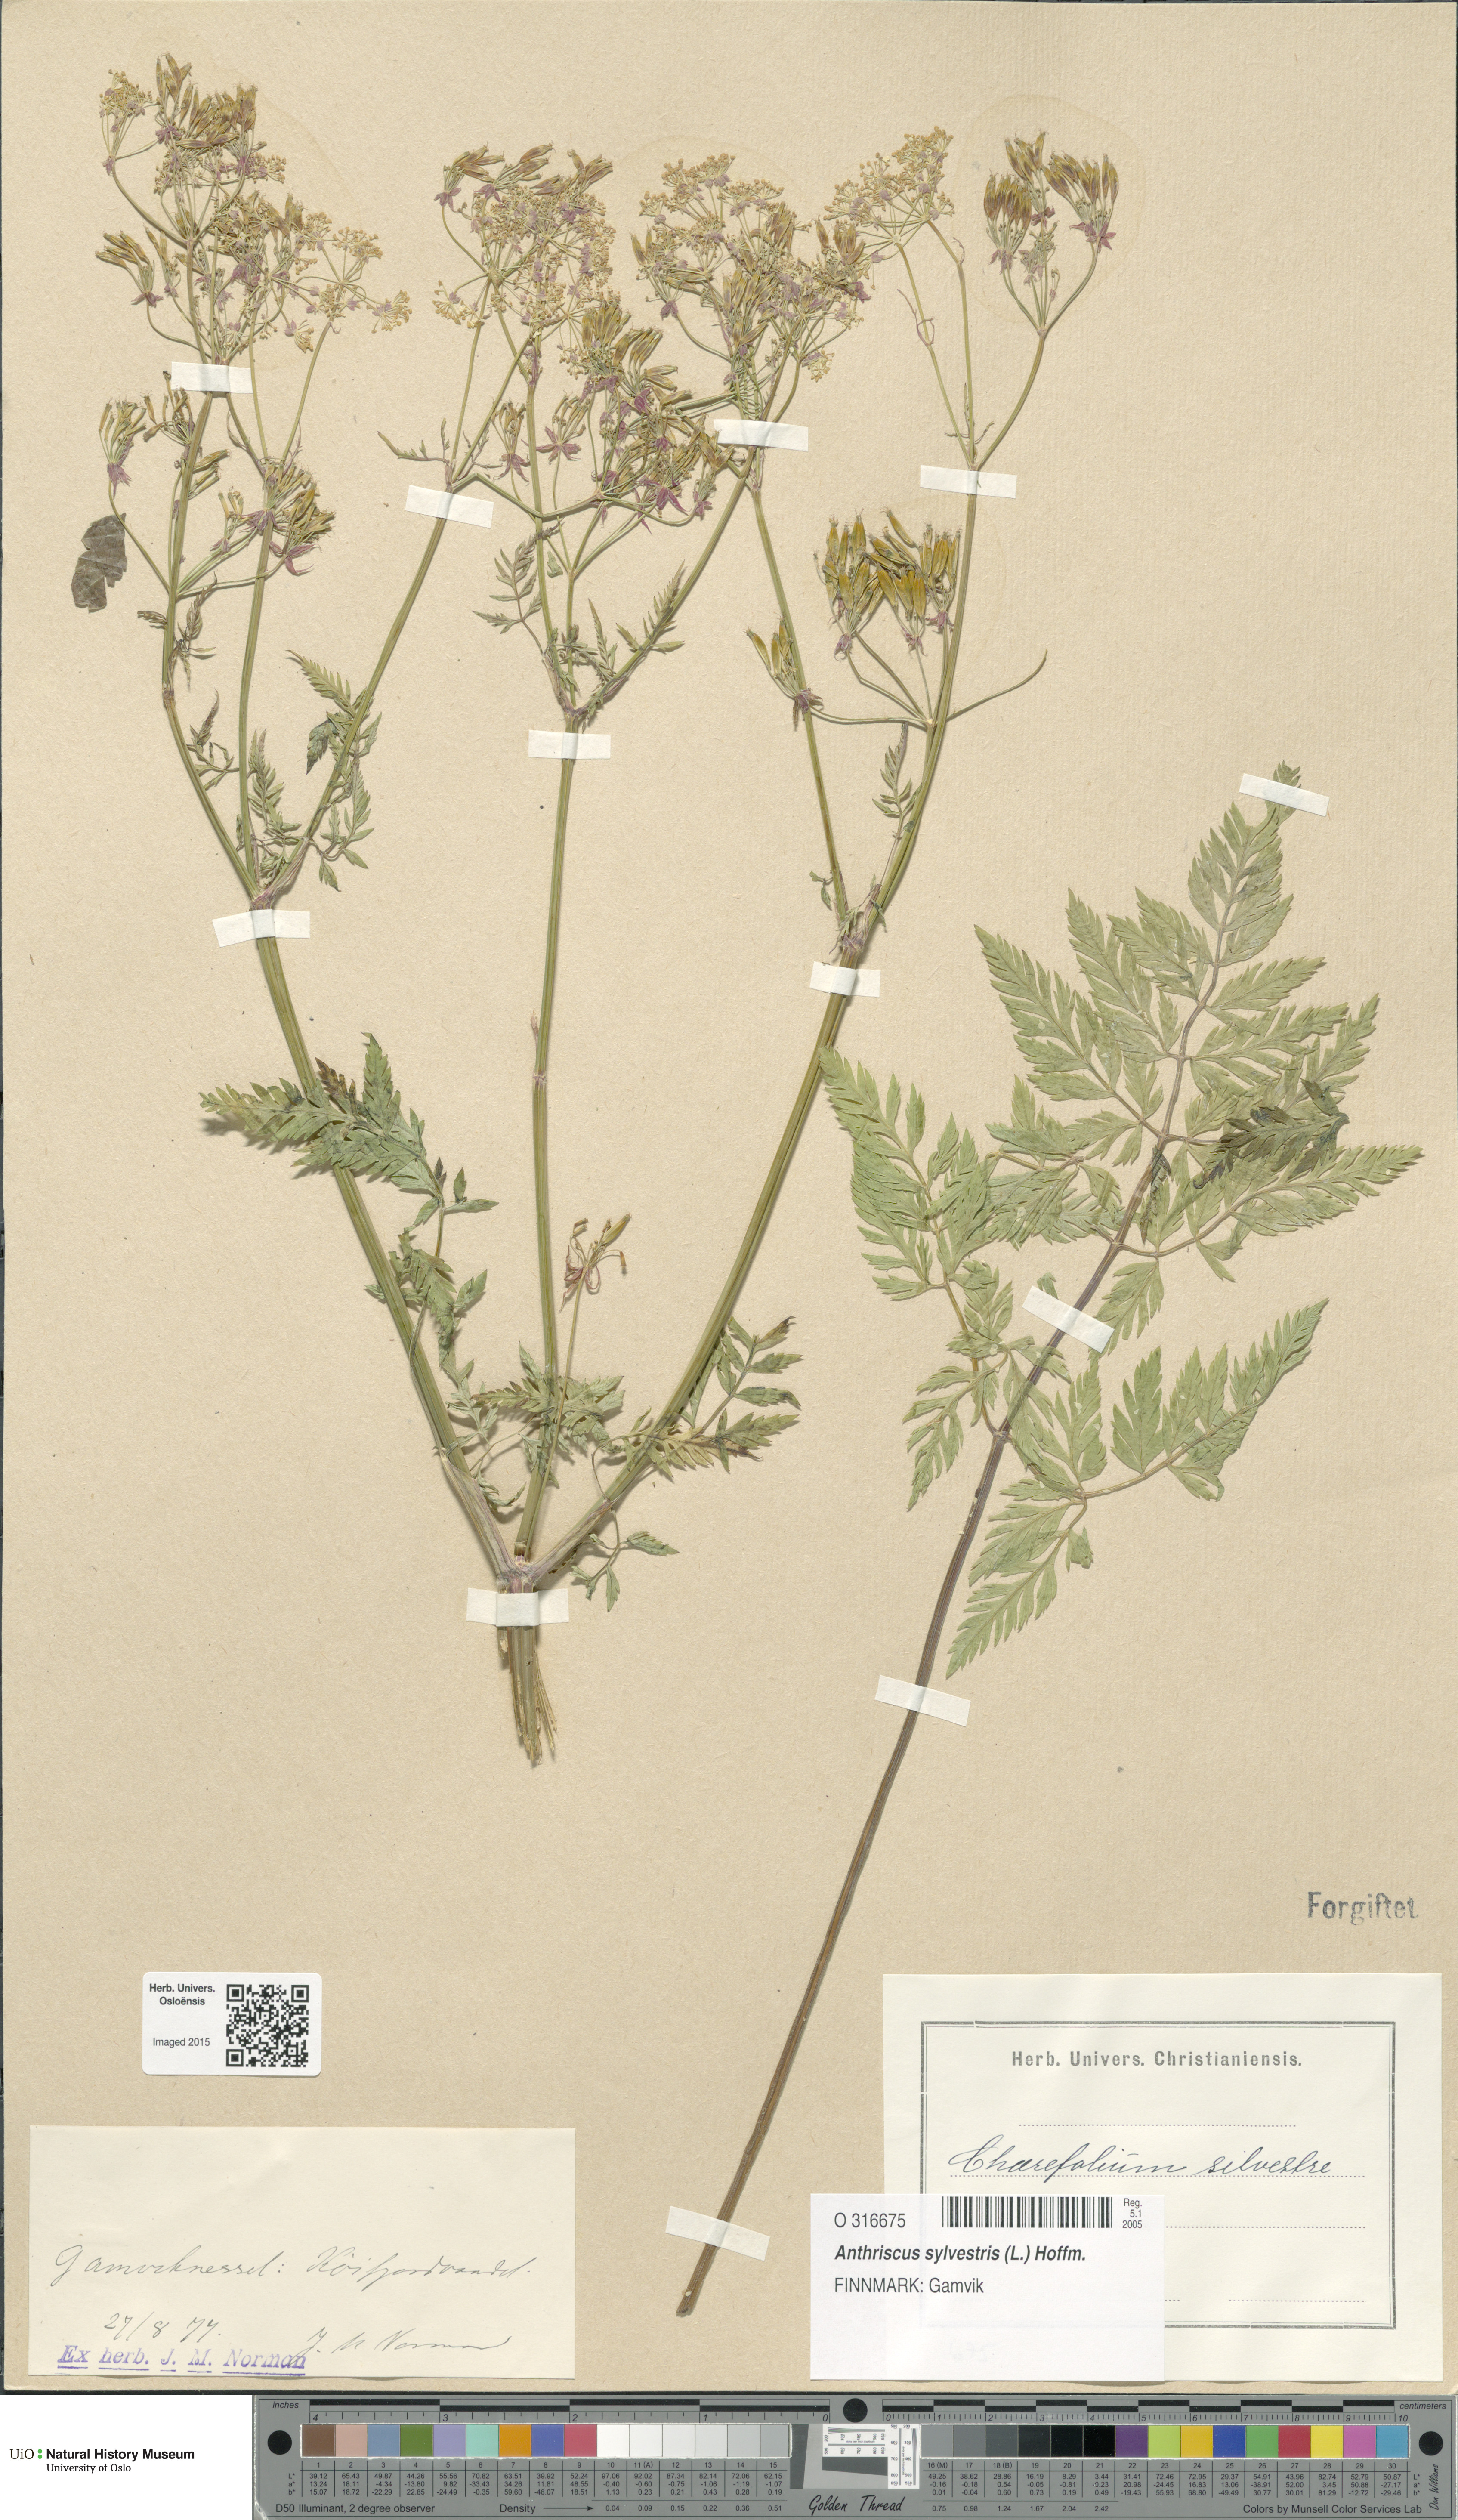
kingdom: Plantae
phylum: Tracheophyta
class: Magnoliopsida
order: Apiales
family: Apiaceae
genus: Anthriscus
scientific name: Anthriscus sylvestris
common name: Cow parsley
